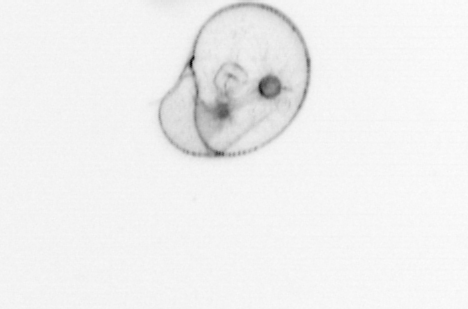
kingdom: Chromista
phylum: Myzozoa
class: Dinophyceae
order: Noctilucales
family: Noctilucaceae
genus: Noctiluca
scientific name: Noctiluca scintillans
